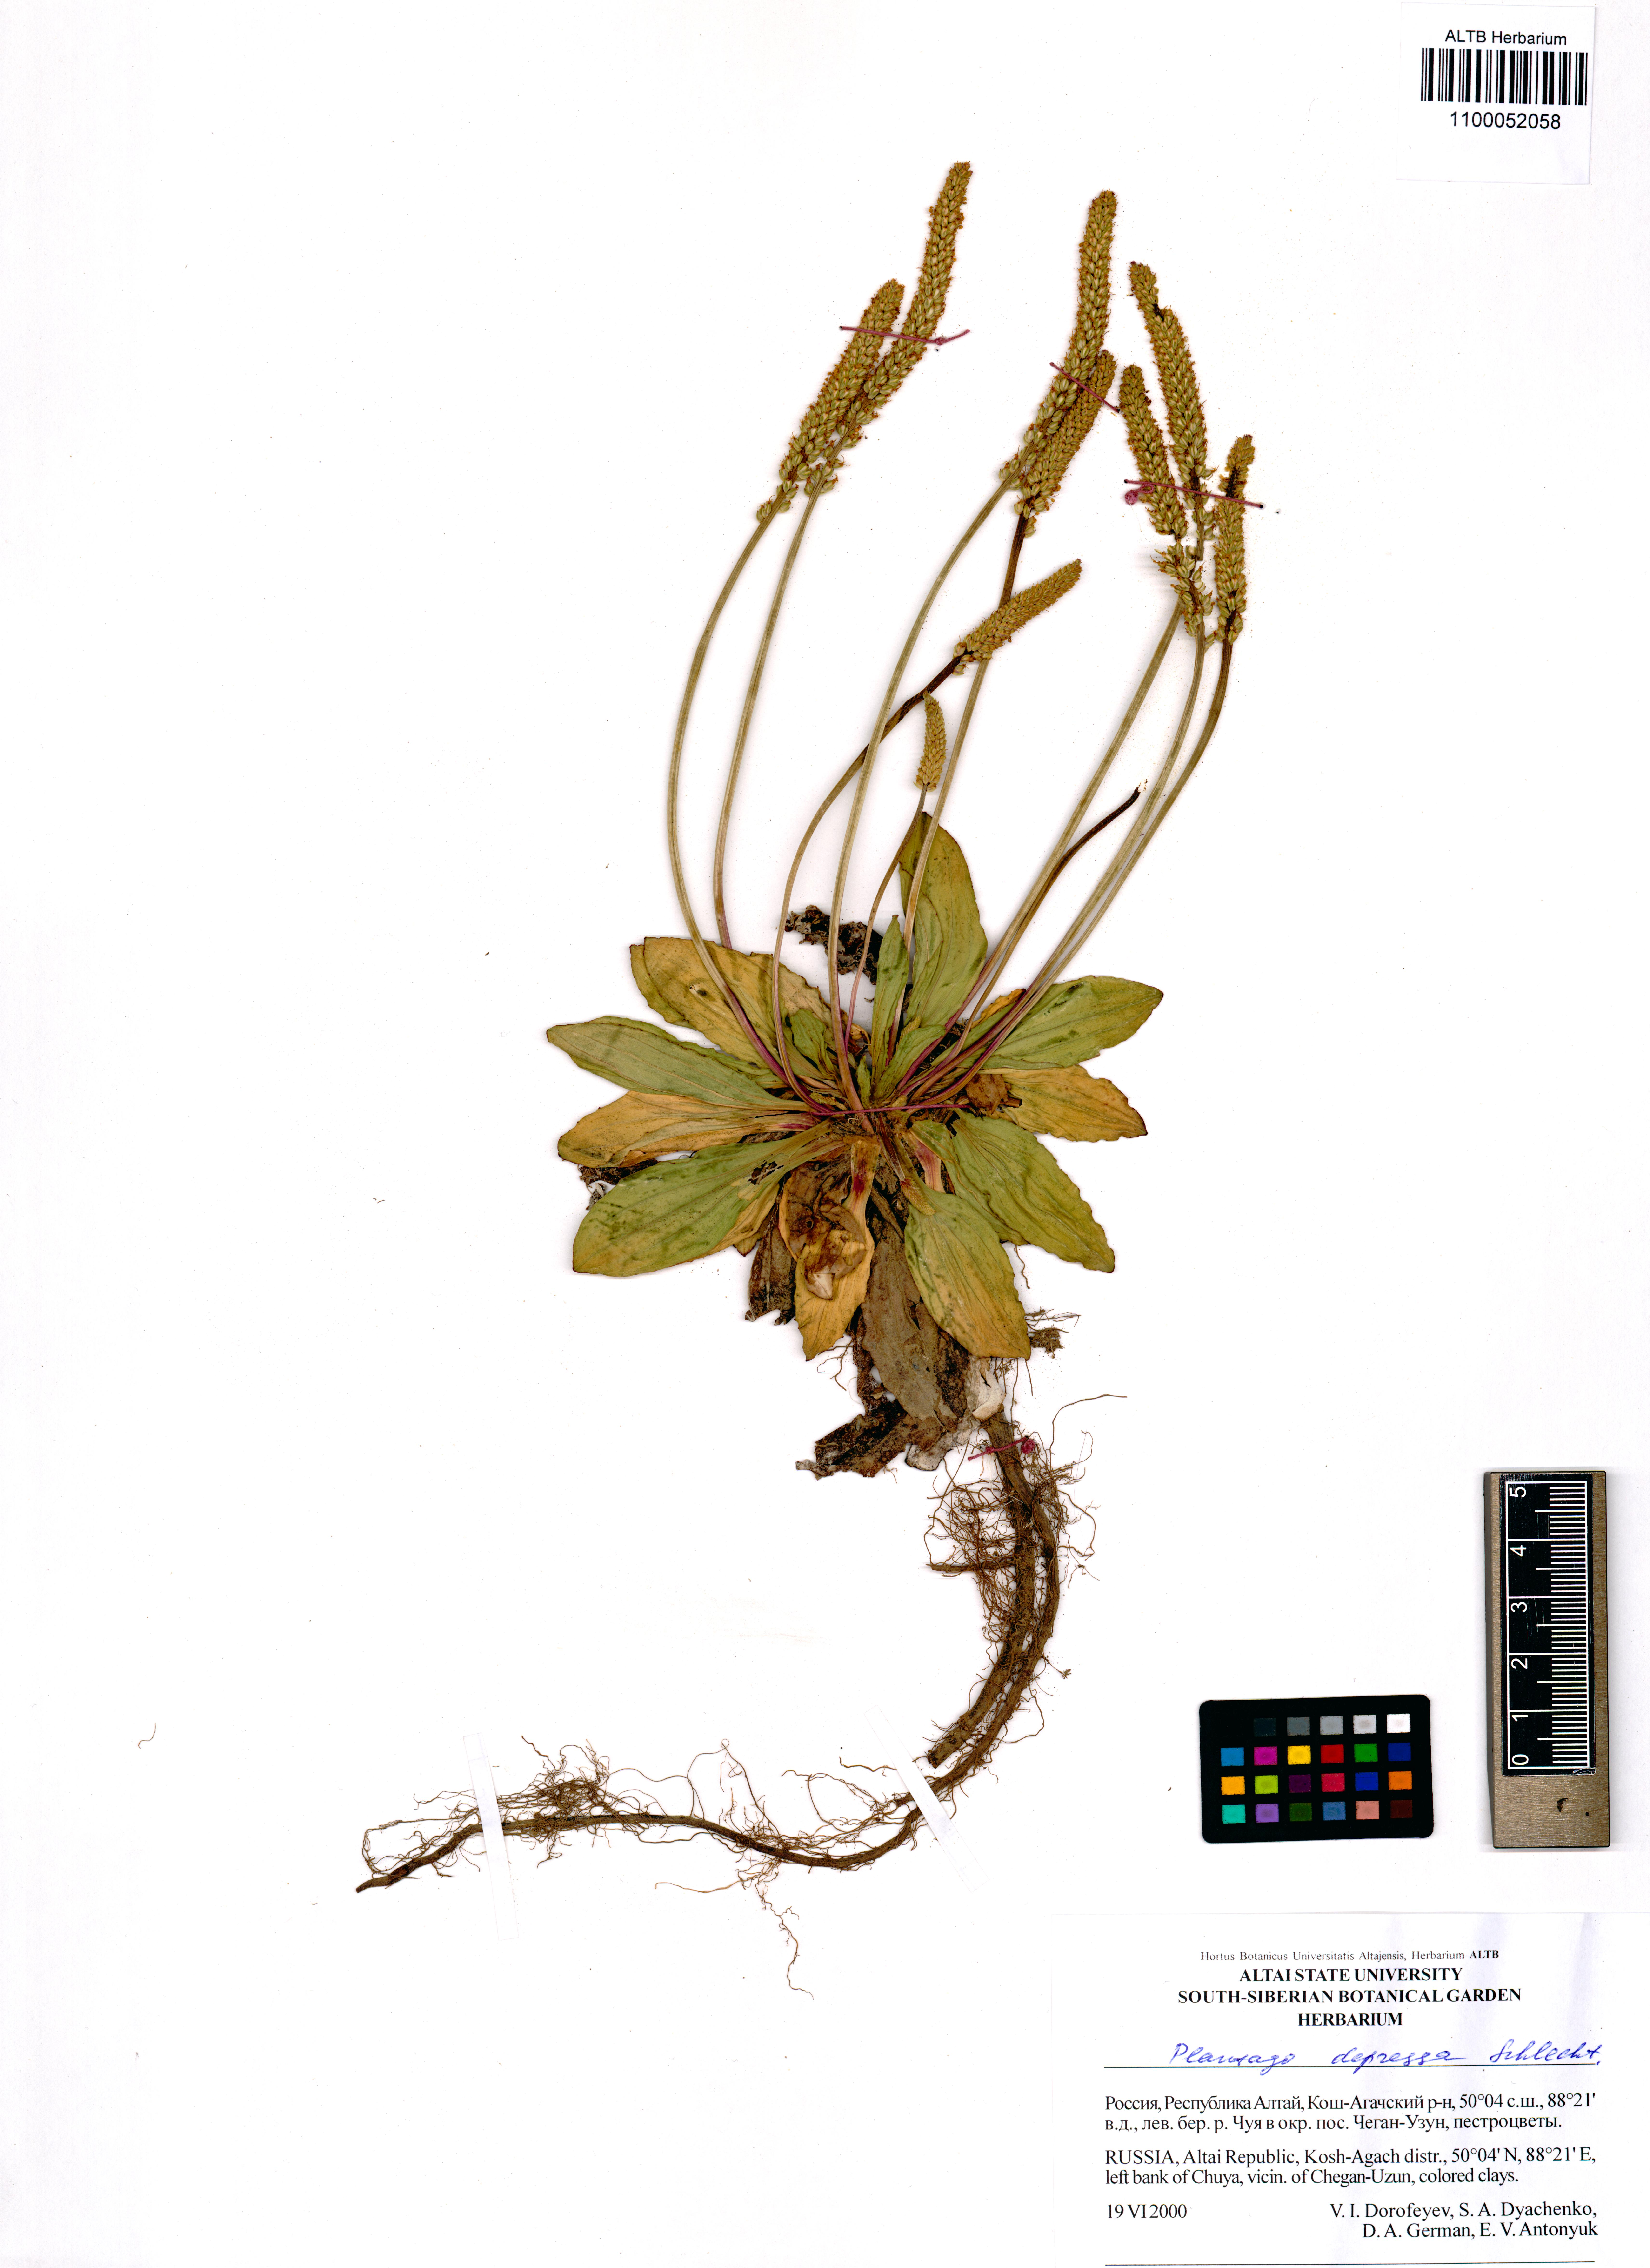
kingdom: Plantae
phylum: Tracheophyta
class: Magnoliopsida
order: Lamiales
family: Plantaginaceae
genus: Plantago
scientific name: Plantago depressa
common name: Depressed plantain
